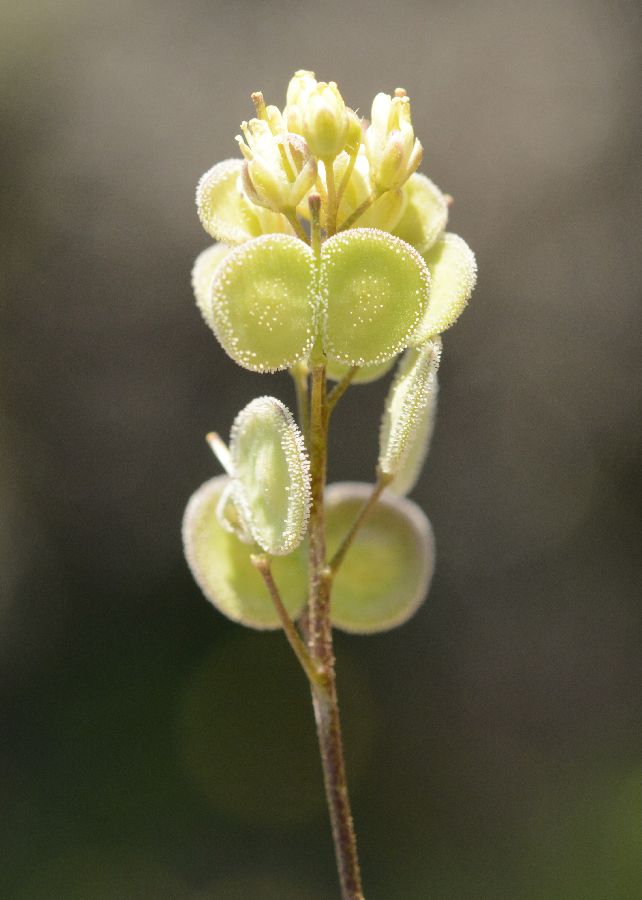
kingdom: Plantae
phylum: Tracheophyta
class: Magnoliopsida
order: Brassicales
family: Brassicaceae
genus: Biscutella
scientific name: Biscutella didyma
